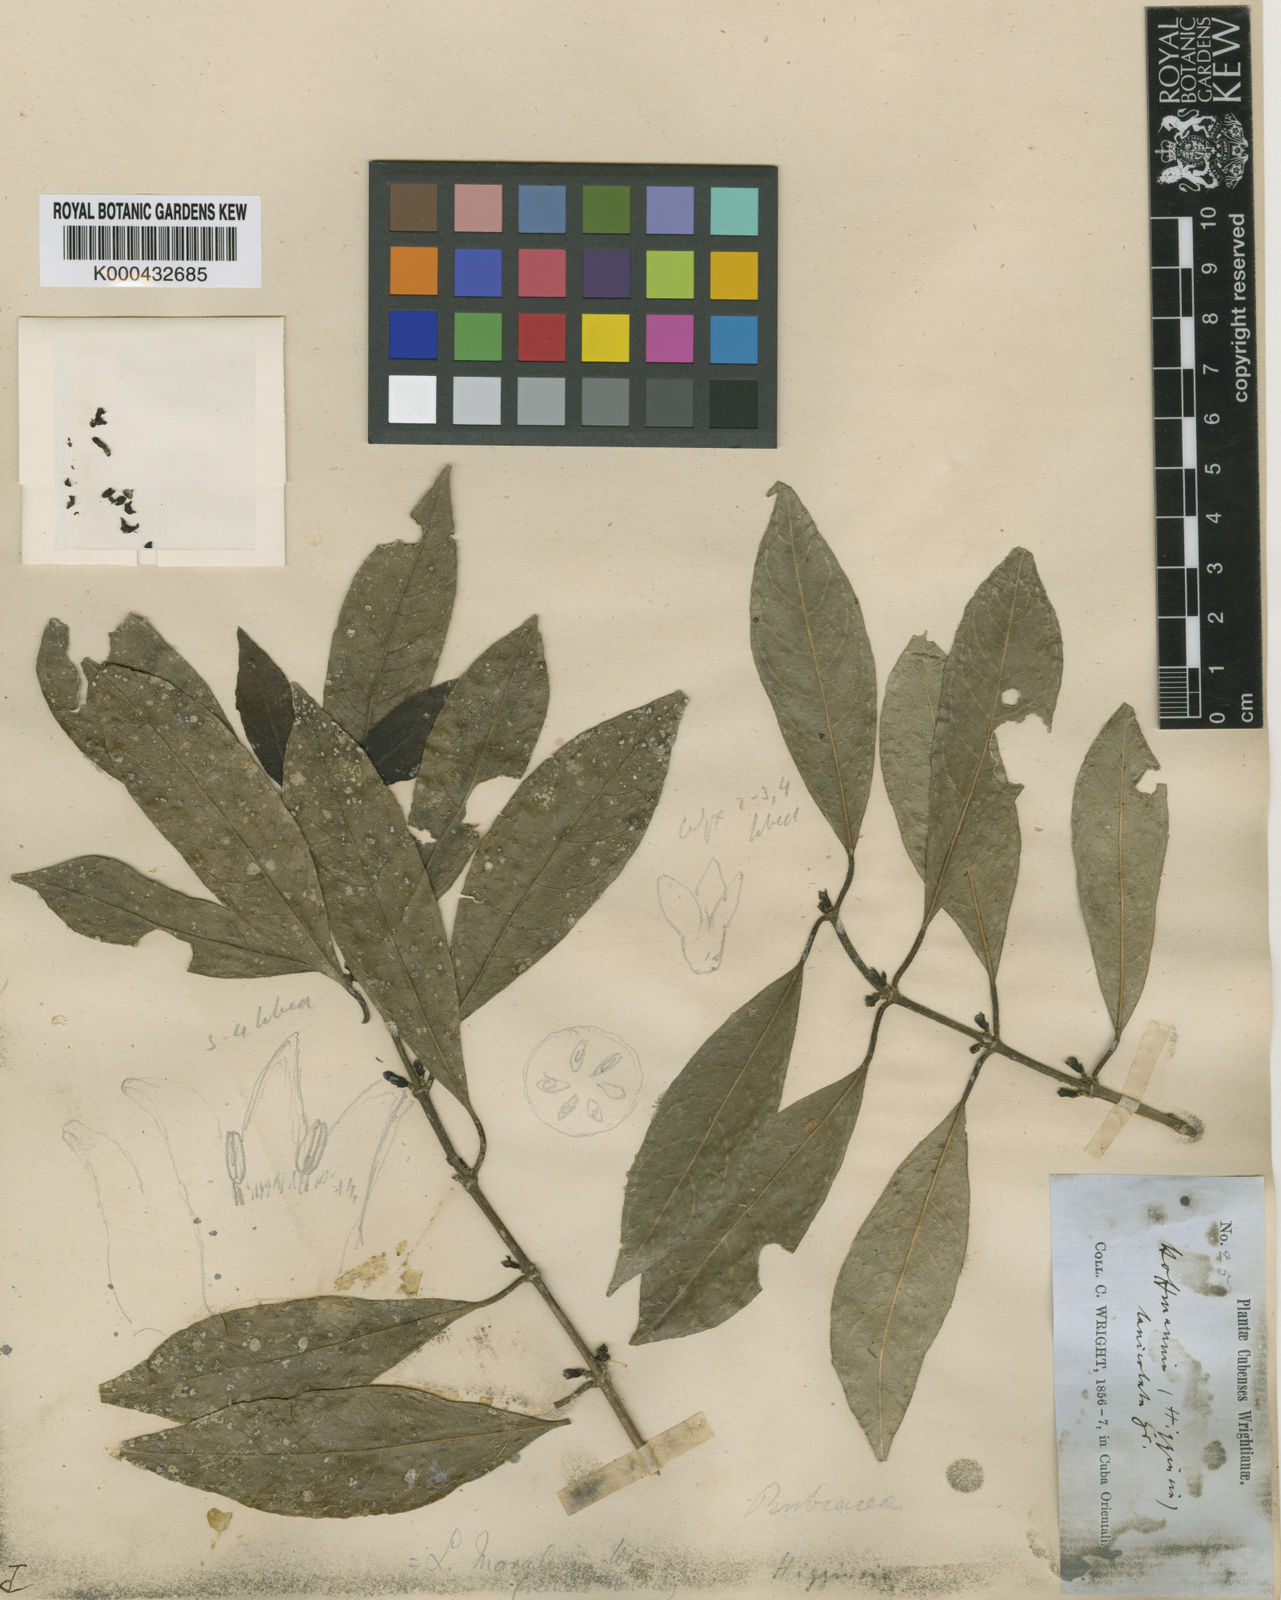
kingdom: Plantae
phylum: Tracheophyta
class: Magnoliopsida
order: Gentianales
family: Rubiaceae
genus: Lasianthus
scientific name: Lasianthus lanceolatus
